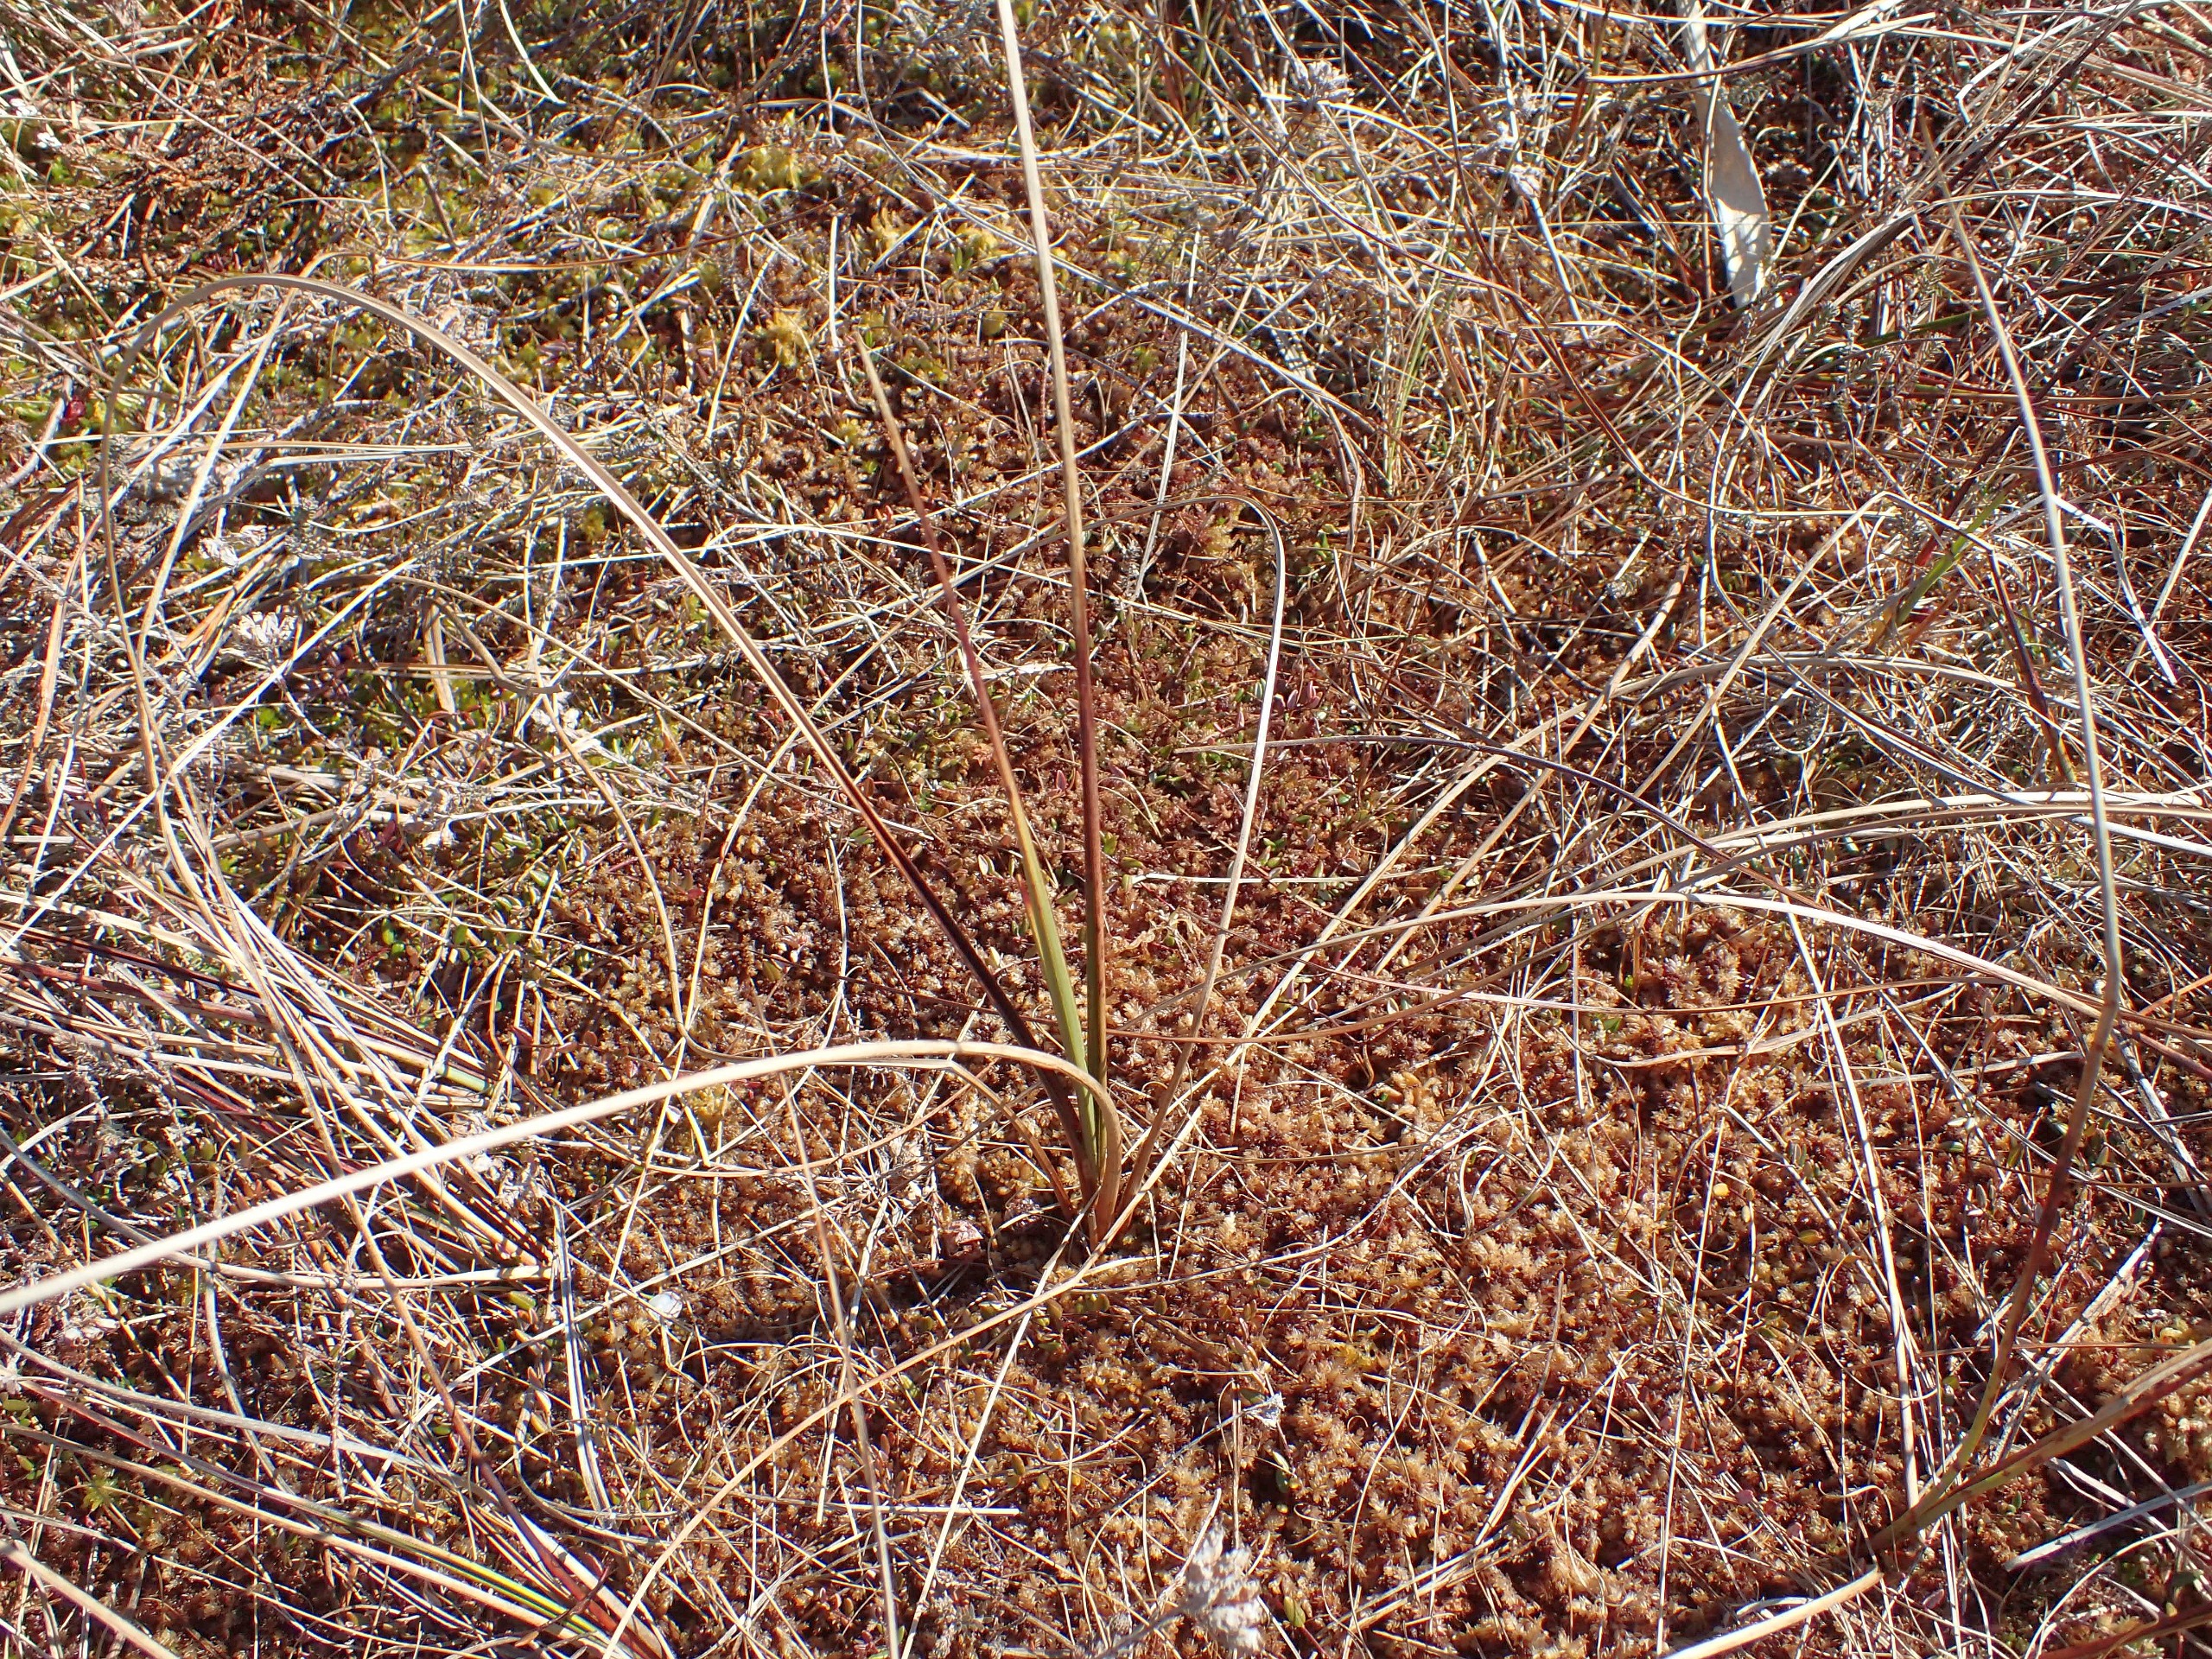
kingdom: Plantae
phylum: Tracheophyta
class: Liliopsida
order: Poales
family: Cyperaceae
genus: Eriophorum
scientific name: Eriophorum angustifolium
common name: Smalbladet kæruld
